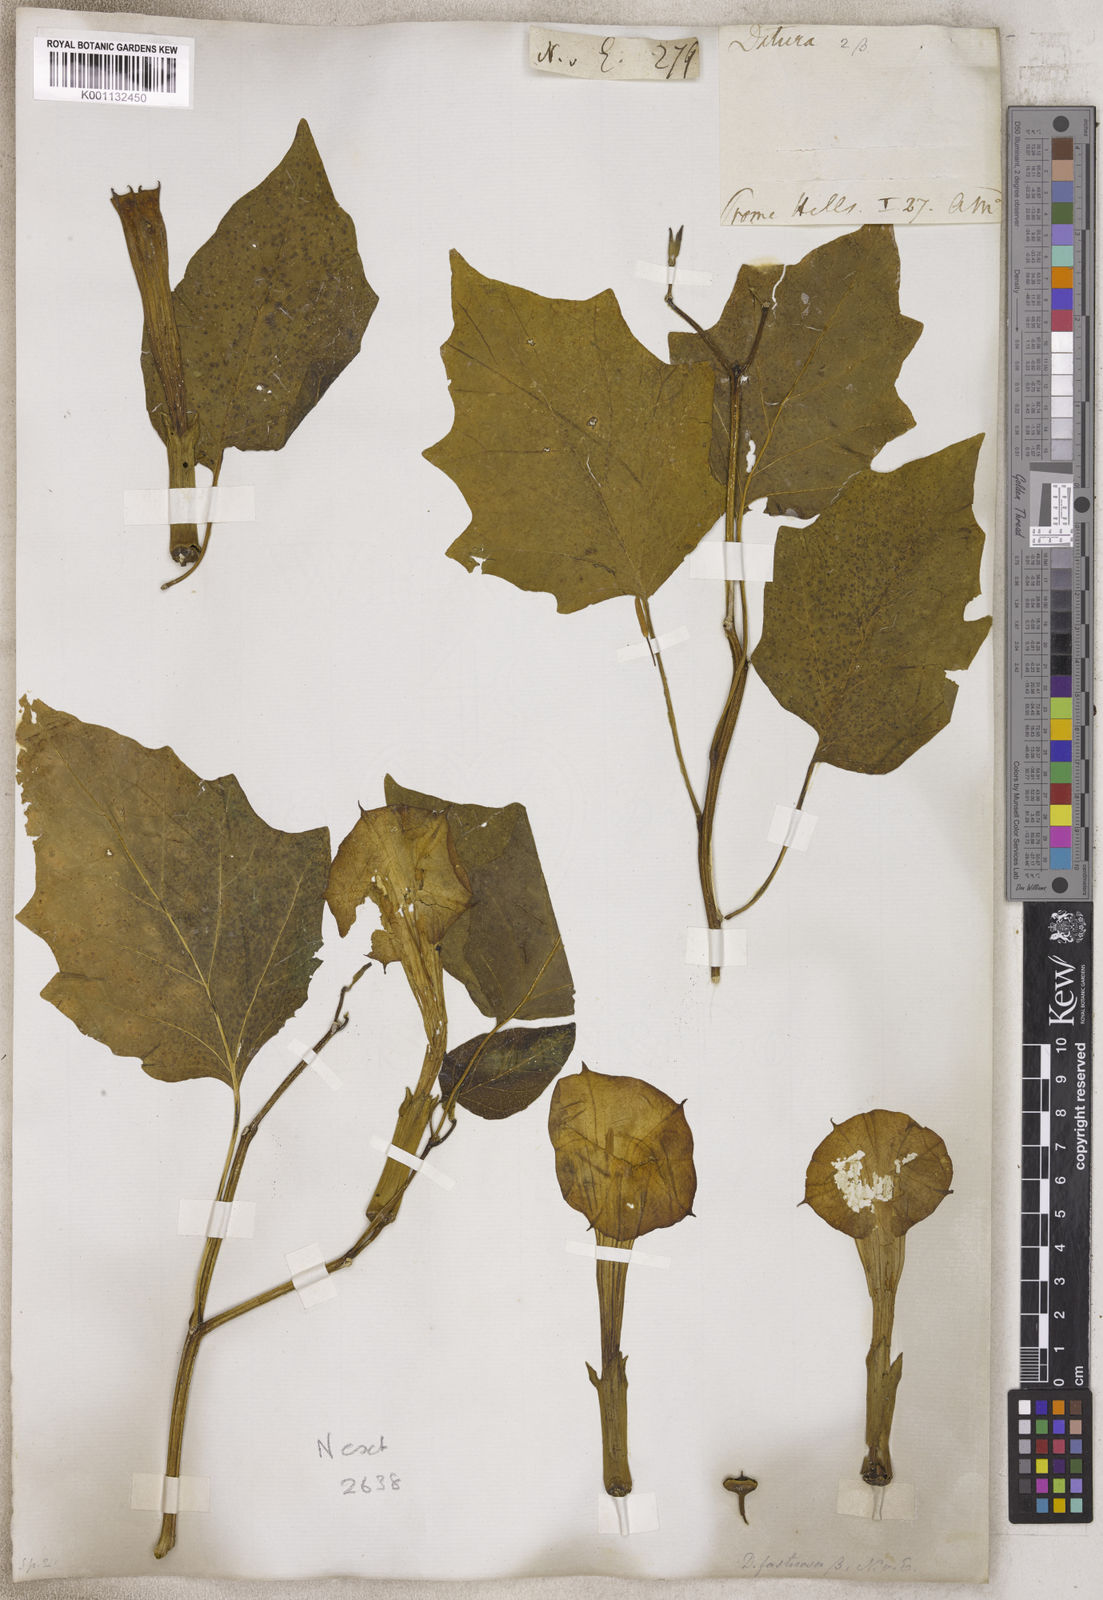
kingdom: Plantae
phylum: Tracheophyta
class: Magnoliopsida
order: Solanales
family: Solanaceae
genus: Datura
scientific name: Datura
